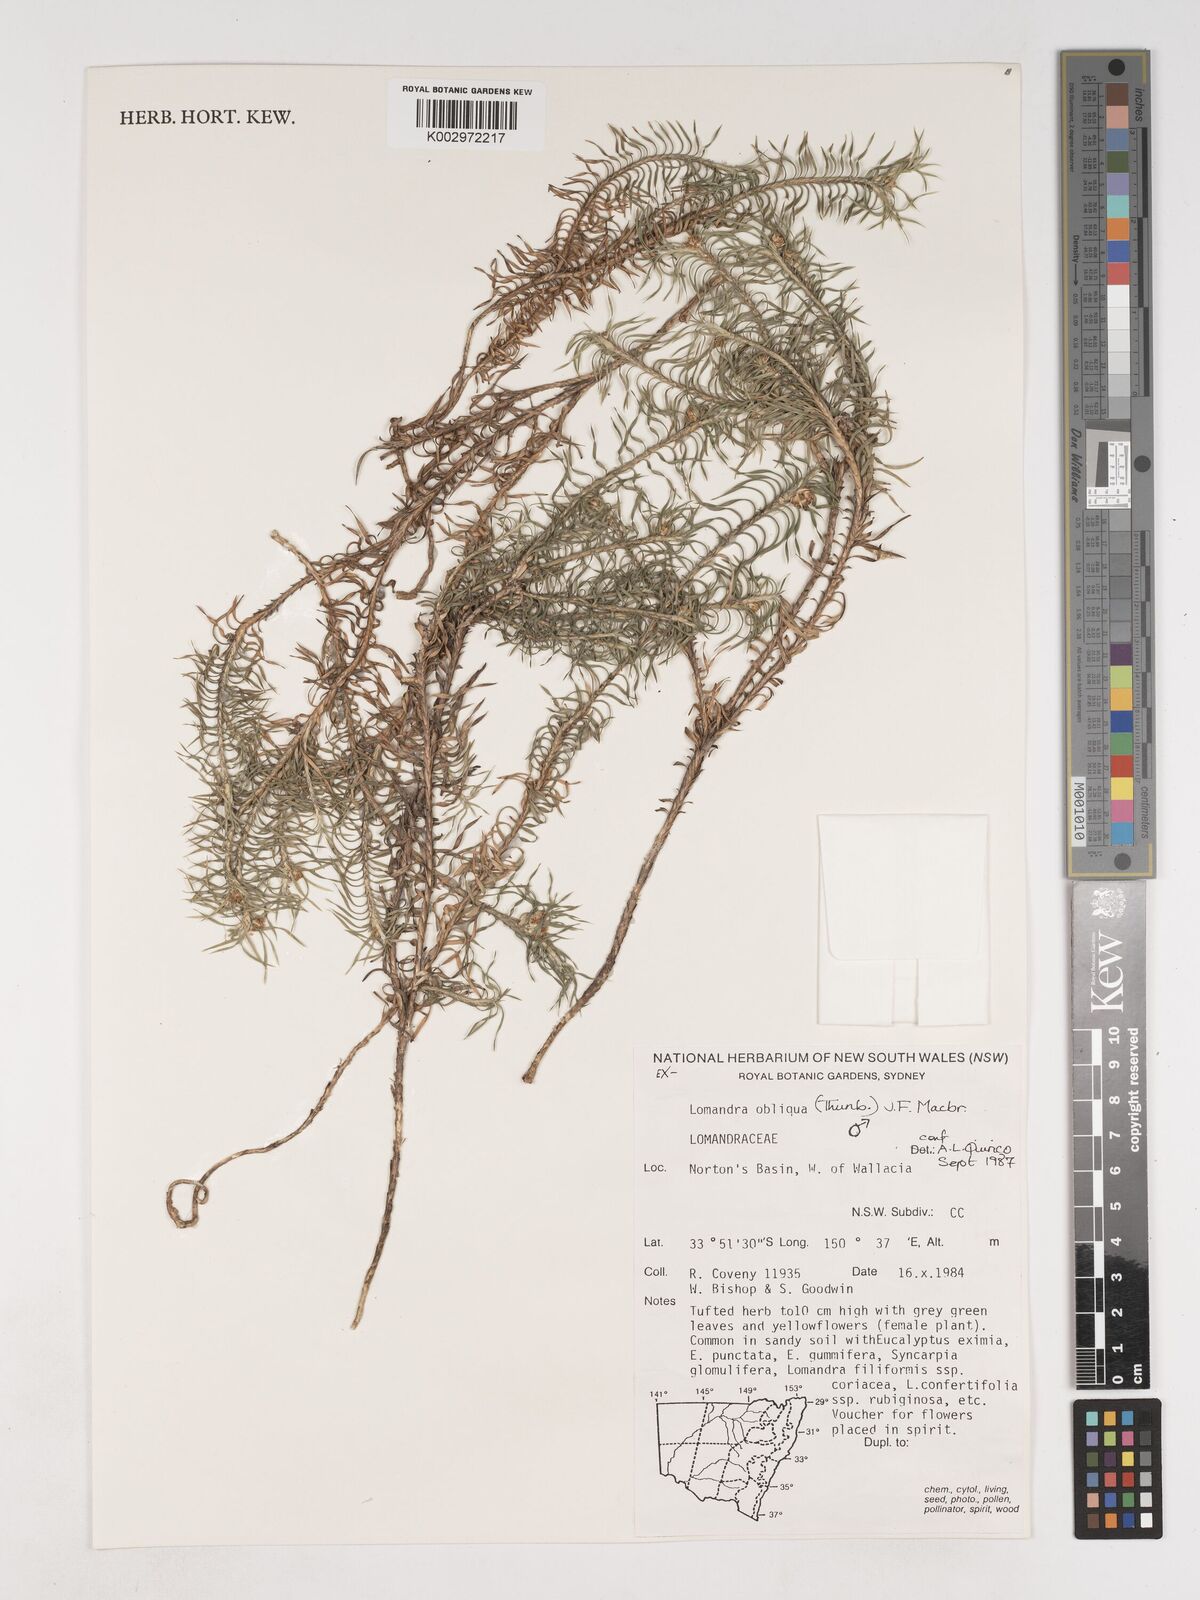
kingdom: Plantae
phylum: Tracheophyta
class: Liliopsida
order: Asparagales
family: Asparagaceae
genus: Lomandra
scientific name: Lomandra obliqua
